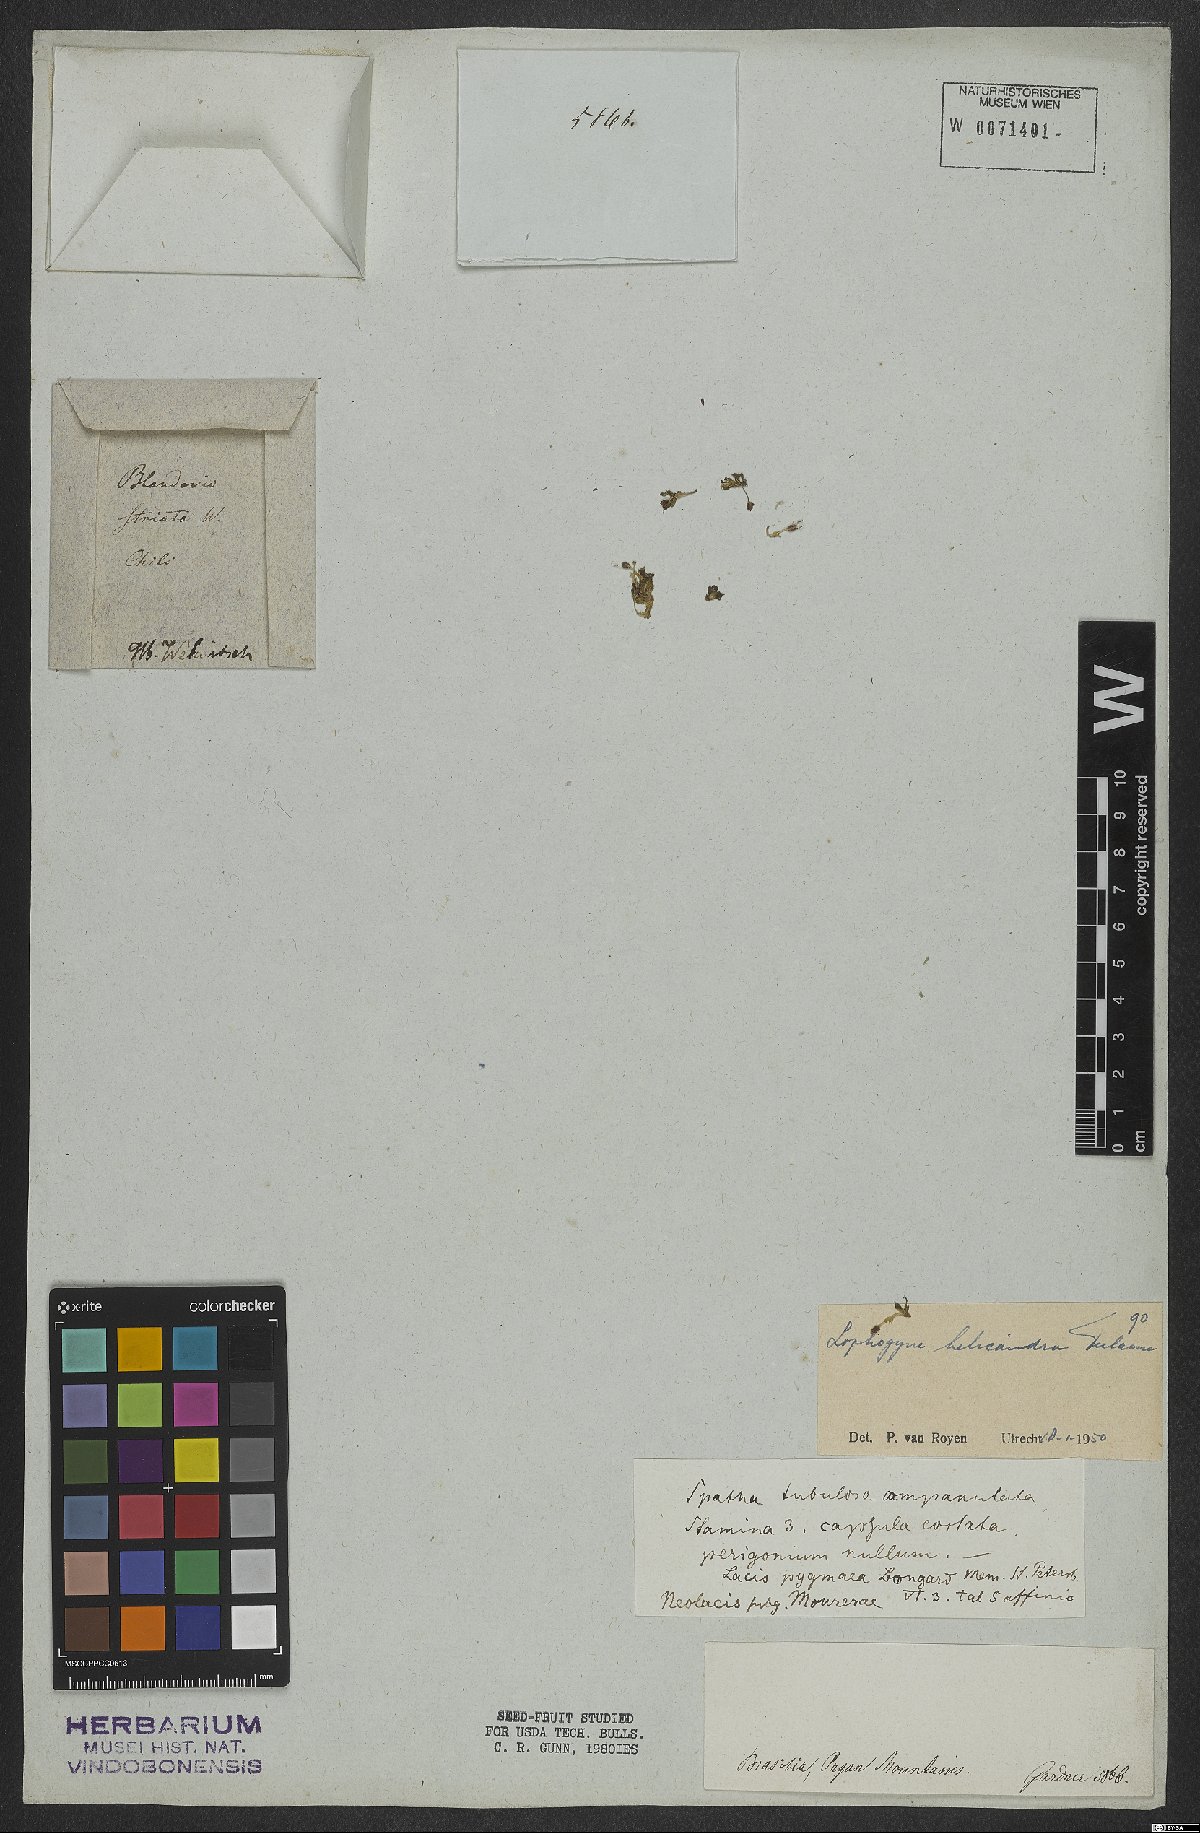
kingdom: Plantae
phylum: Tracheophyta
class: Magnoliopsida
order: Malpighiales
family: Podostemaceae
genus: Lophogyne
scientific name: Lophogyne helicandra
